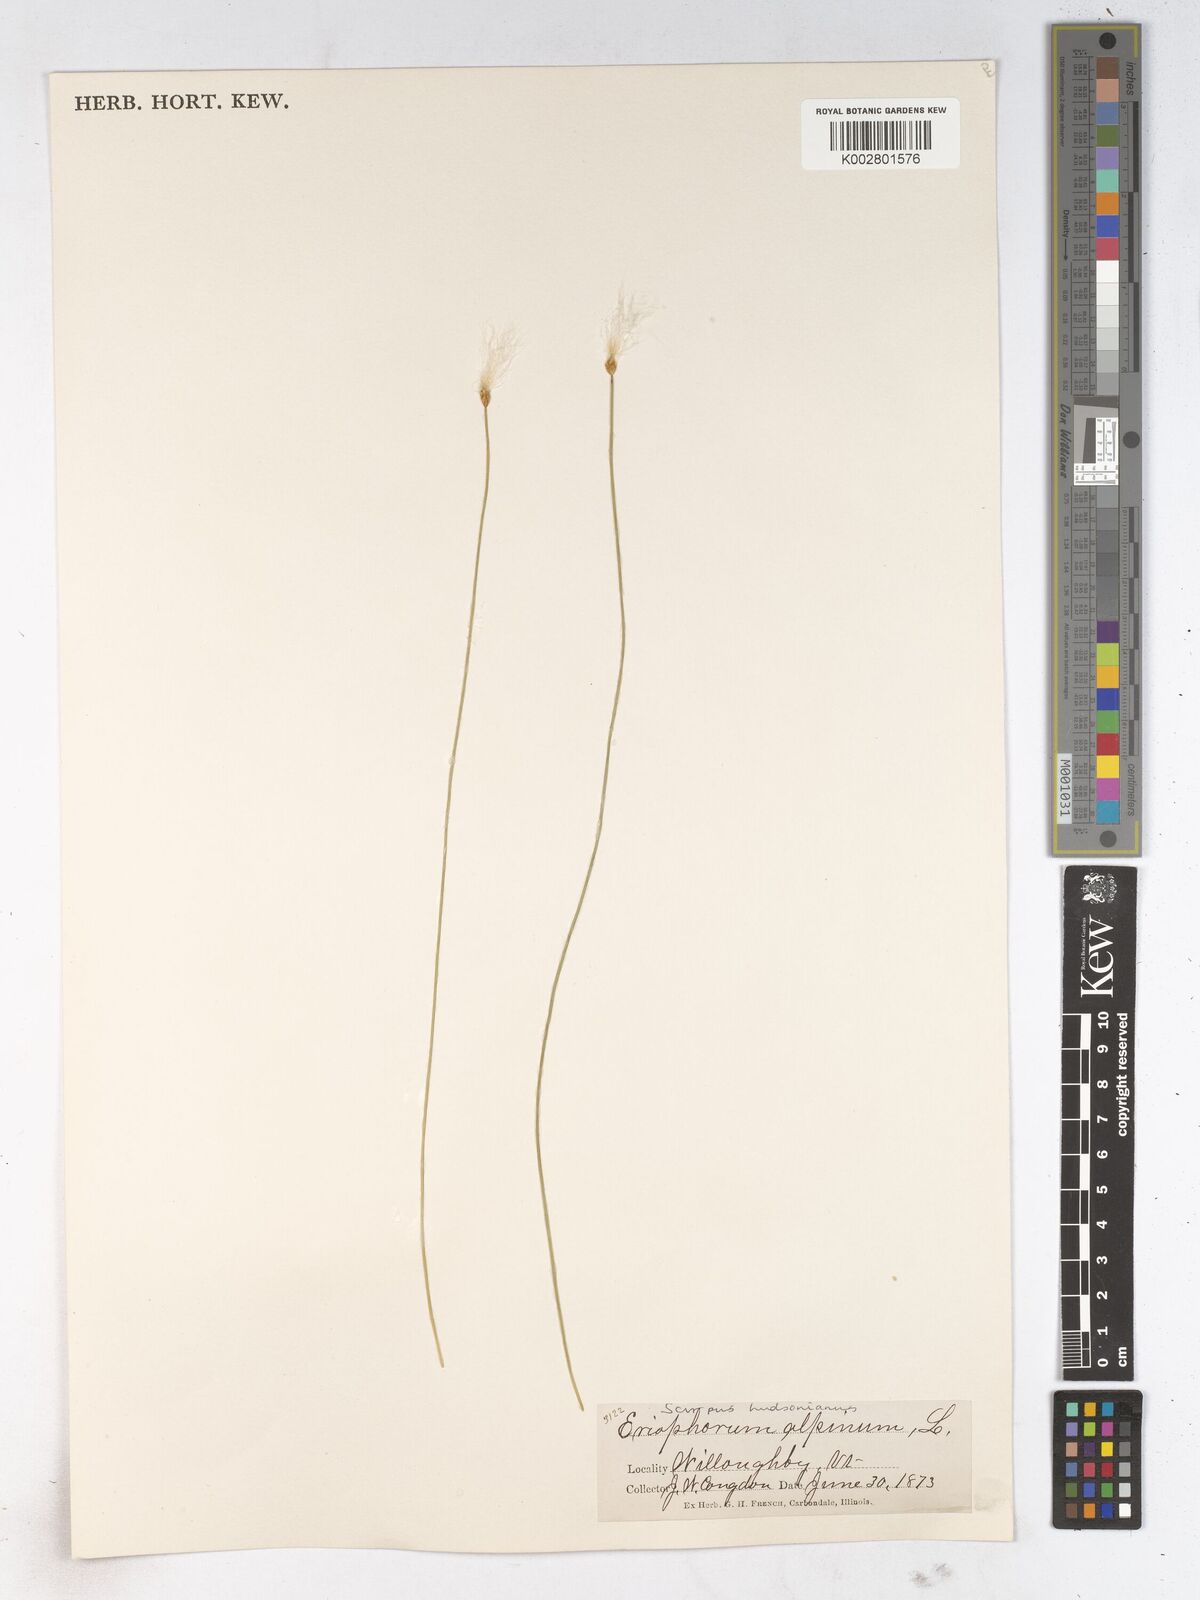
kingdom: Plantae
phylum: Tracheophyta
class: Liliopsida
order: Poales
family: Cyperaceae
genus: Trichophorum
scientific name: Trichophorum alpinum
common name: Alpine bulrush
